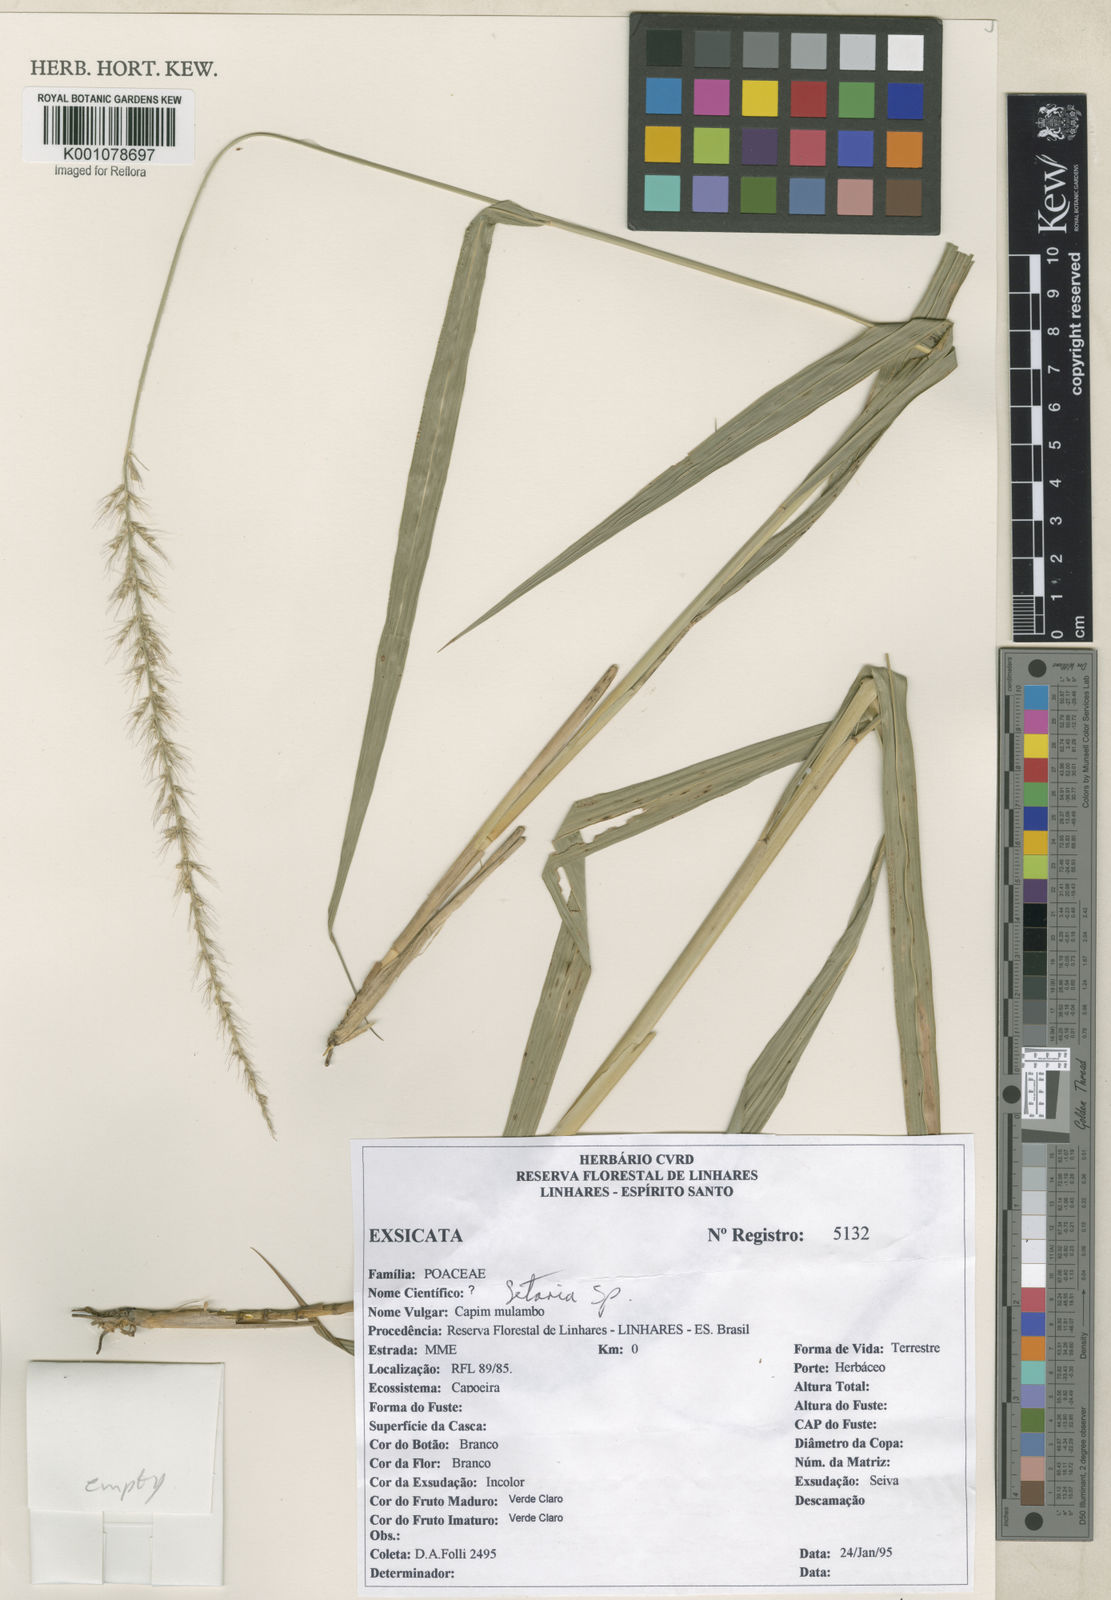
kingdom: Plantae
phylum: Tracheophyta
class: Liliopsida
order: Poales
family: Poaceae
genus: Setaria
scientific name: Setaria
